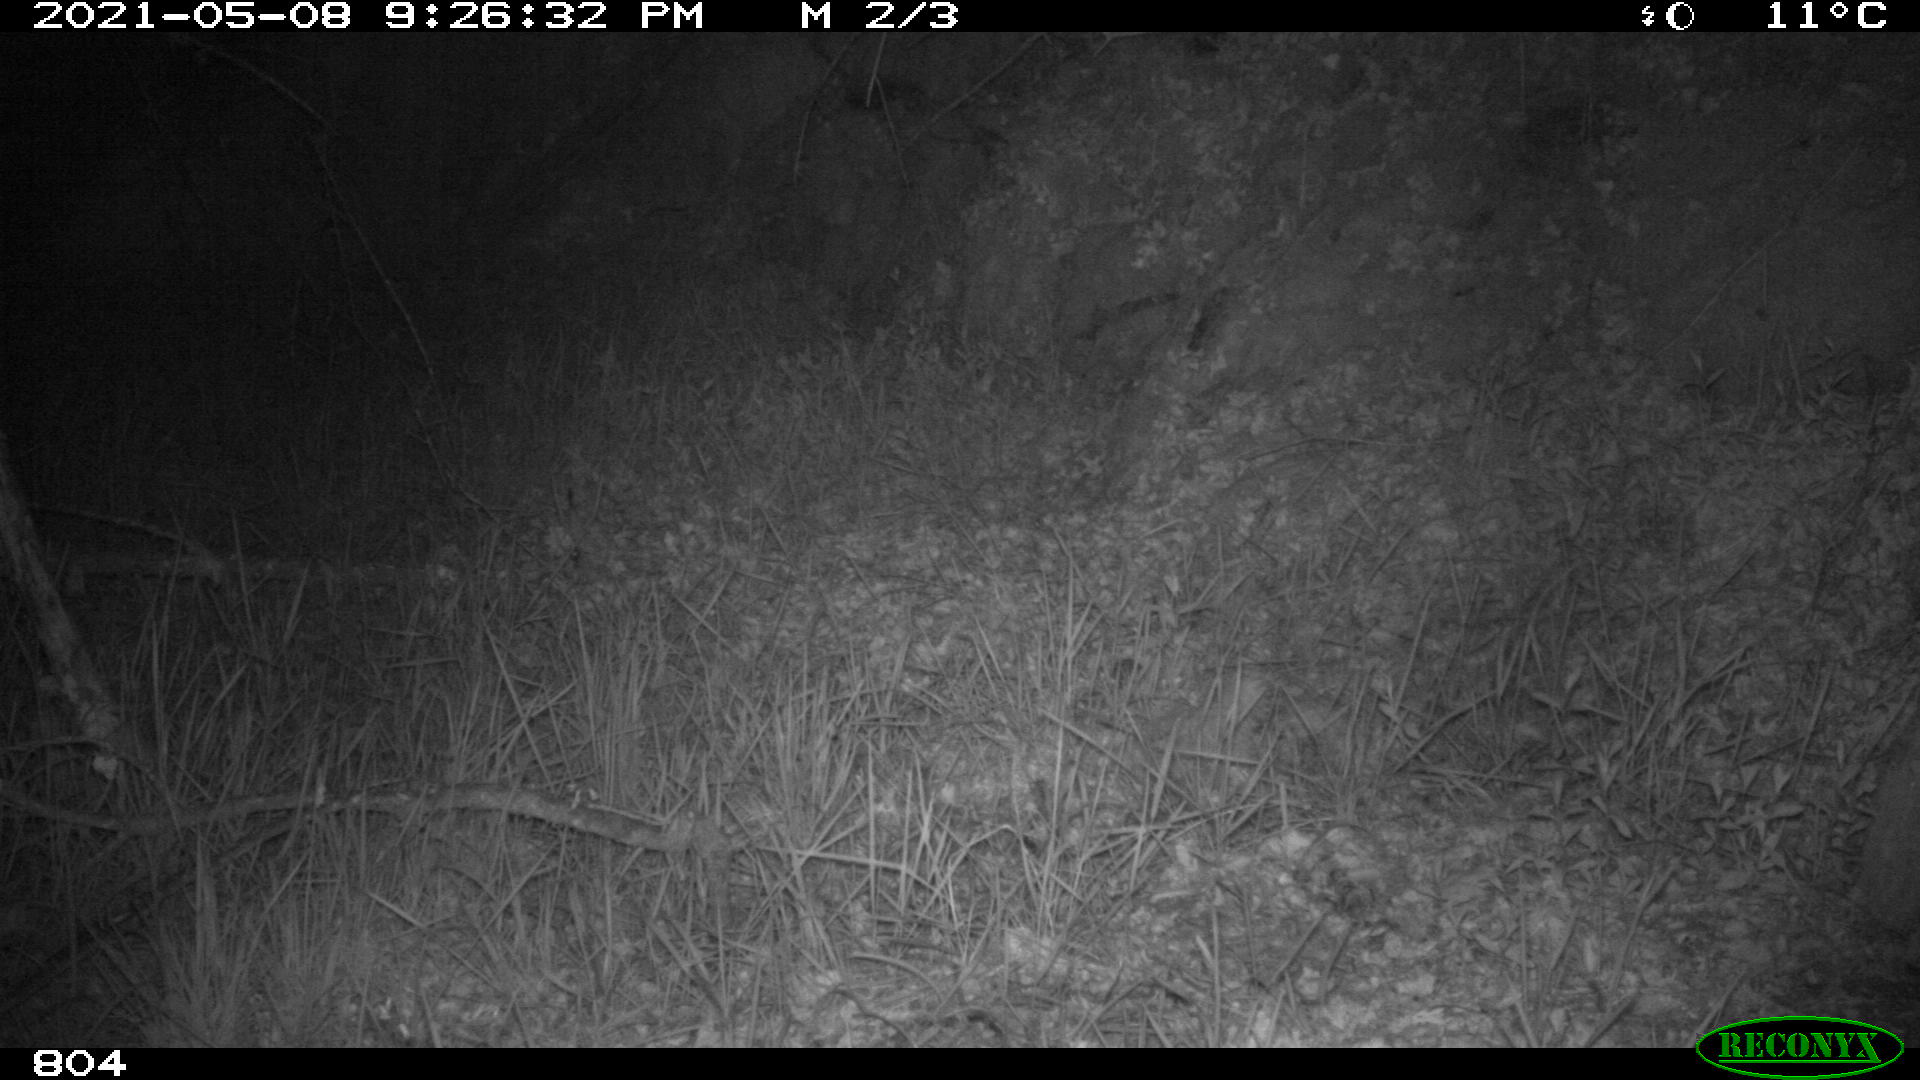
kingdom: Animalia
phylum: Chordata
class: Mammalia
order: Artiodactyla
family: Cervidae
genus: Capreolus
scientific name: Capreolus capreolus
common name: Western roe deer
